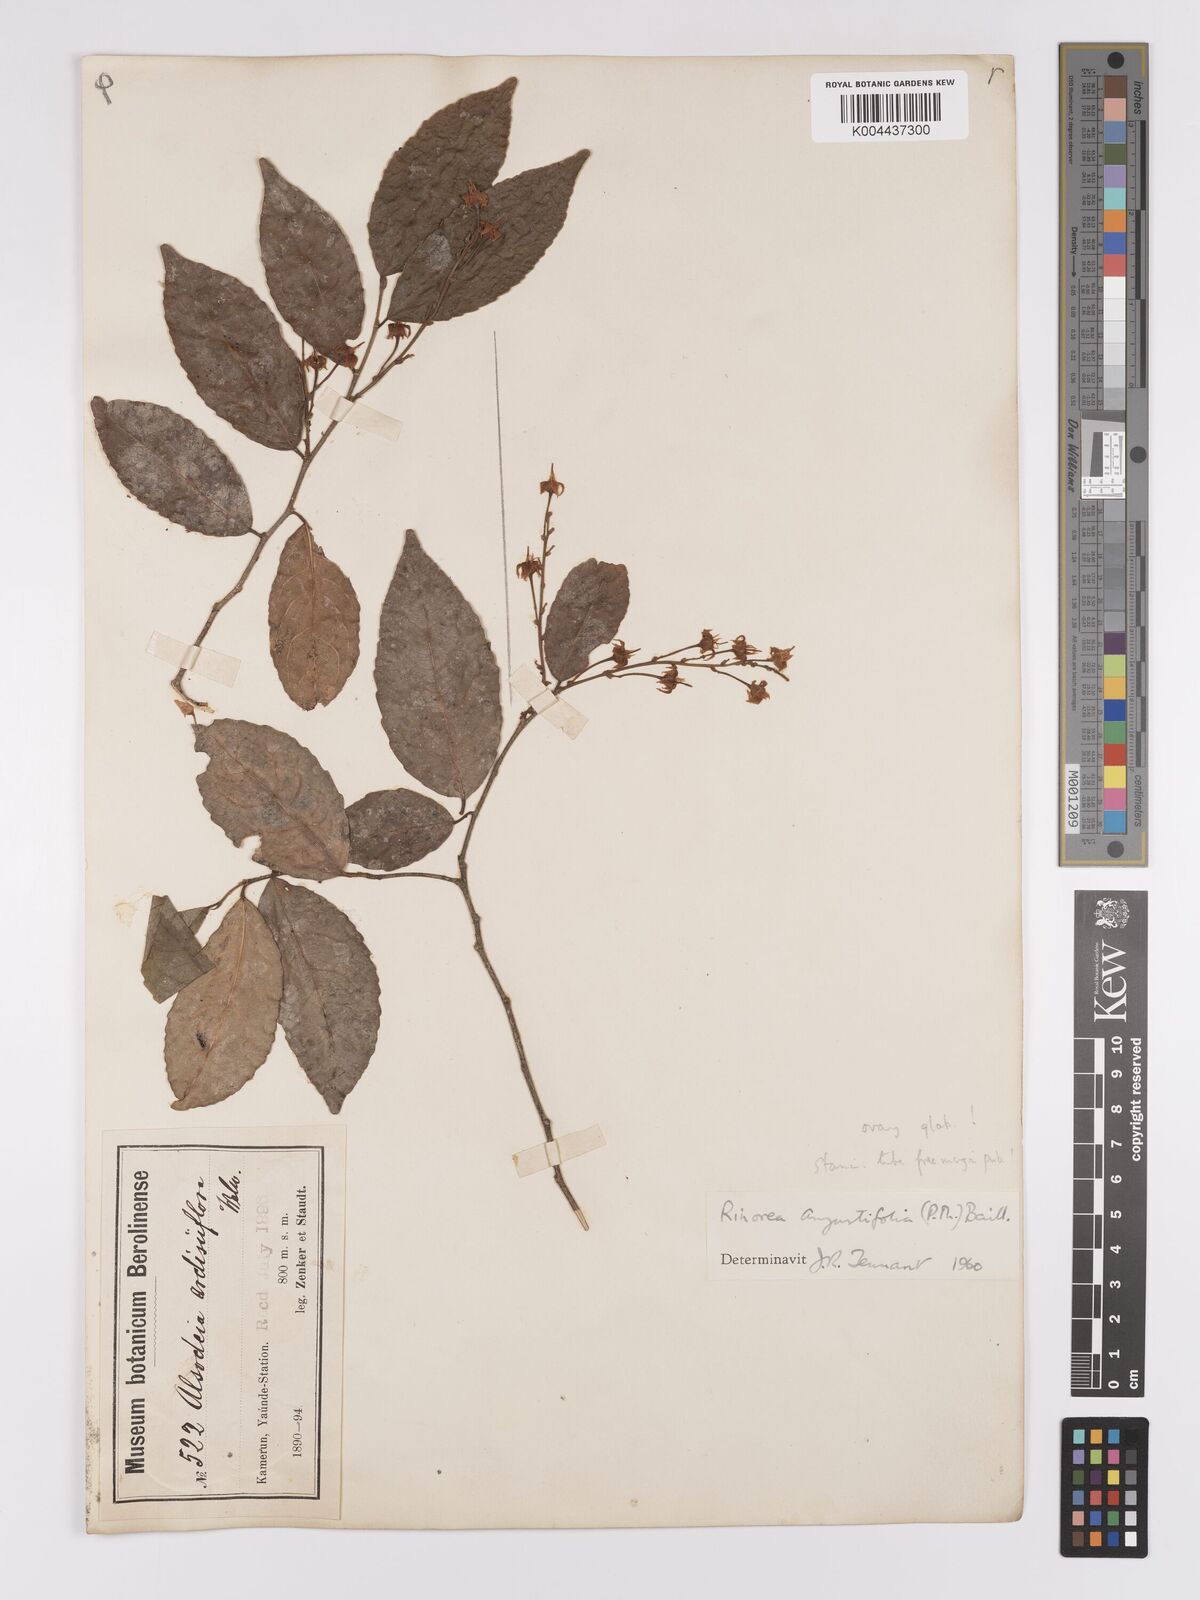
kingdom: Plantae
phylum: Tracheophyta
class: Magnoliopsida
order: Malpighiales
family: Violaceae
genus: Rinorea
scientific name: Rinorea angustifolia
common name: White violet-bush
